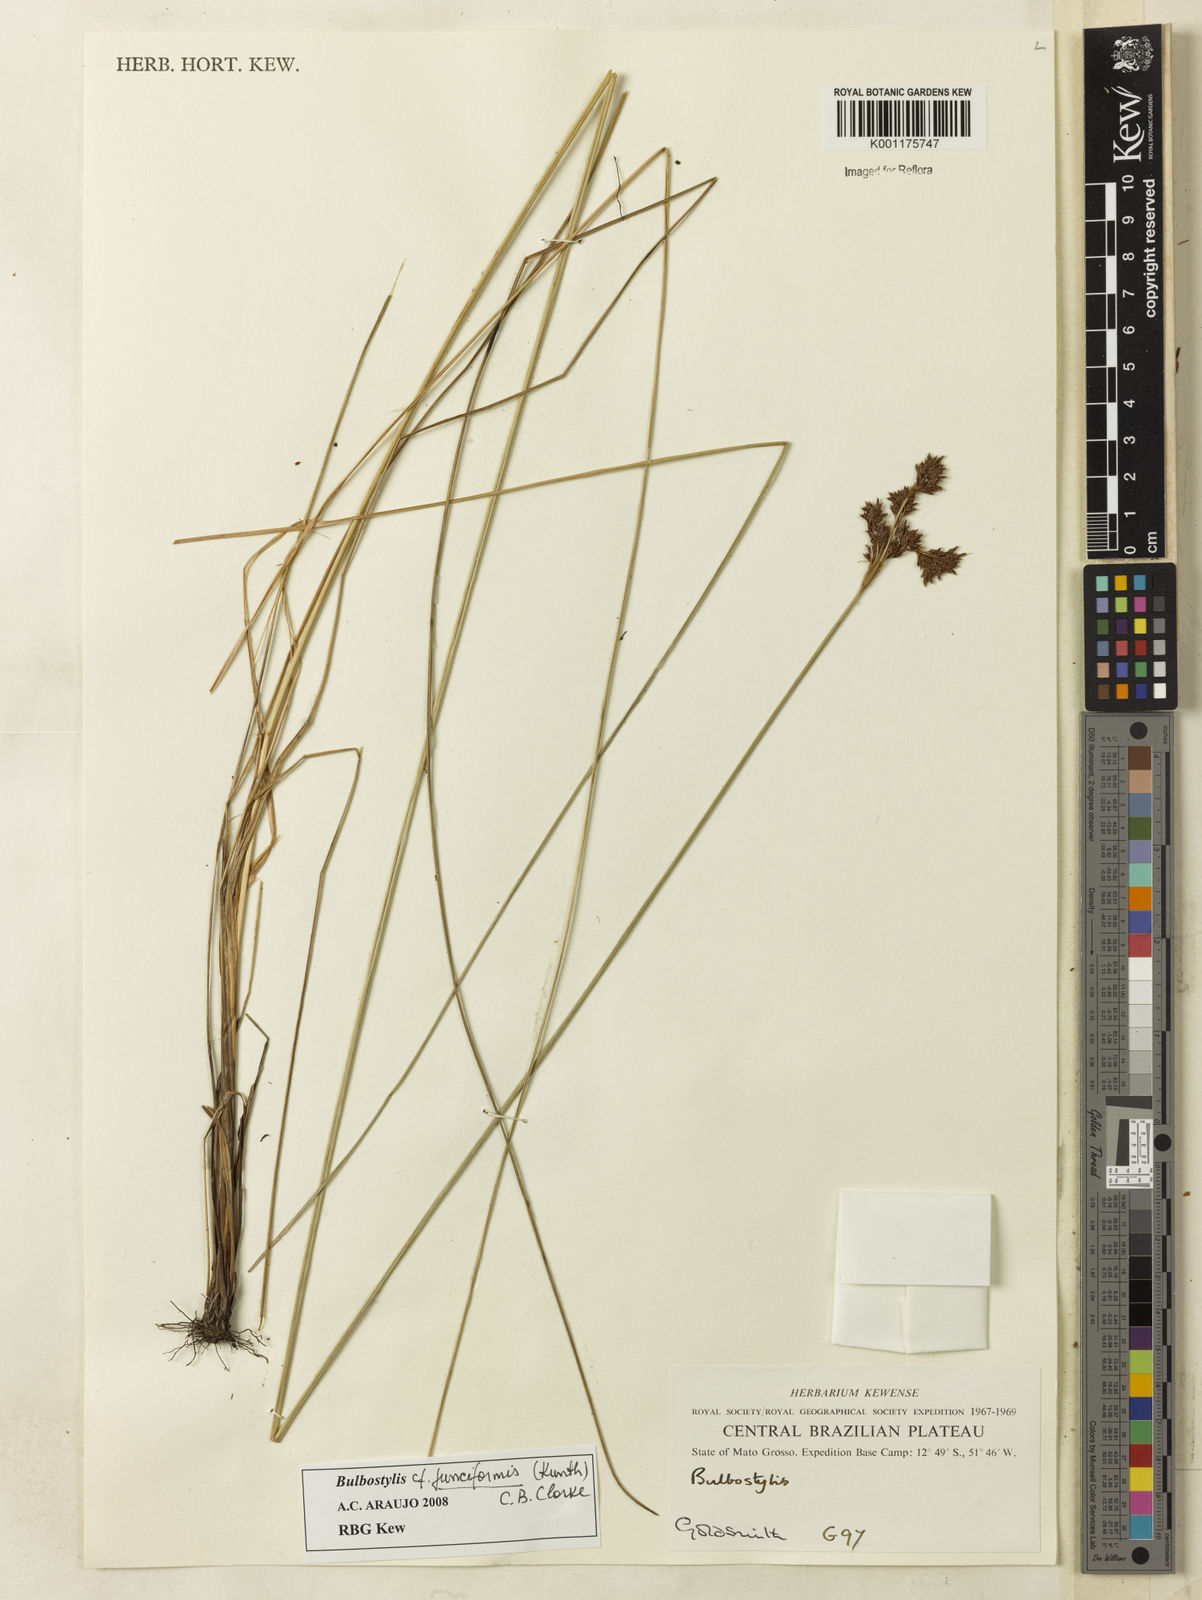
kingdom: Plantae
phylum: Tracheophyta
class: Liliopsida
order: Poales
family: Cyperaceae
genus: Bulbostylis
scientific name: Bulbostylis junciformis
